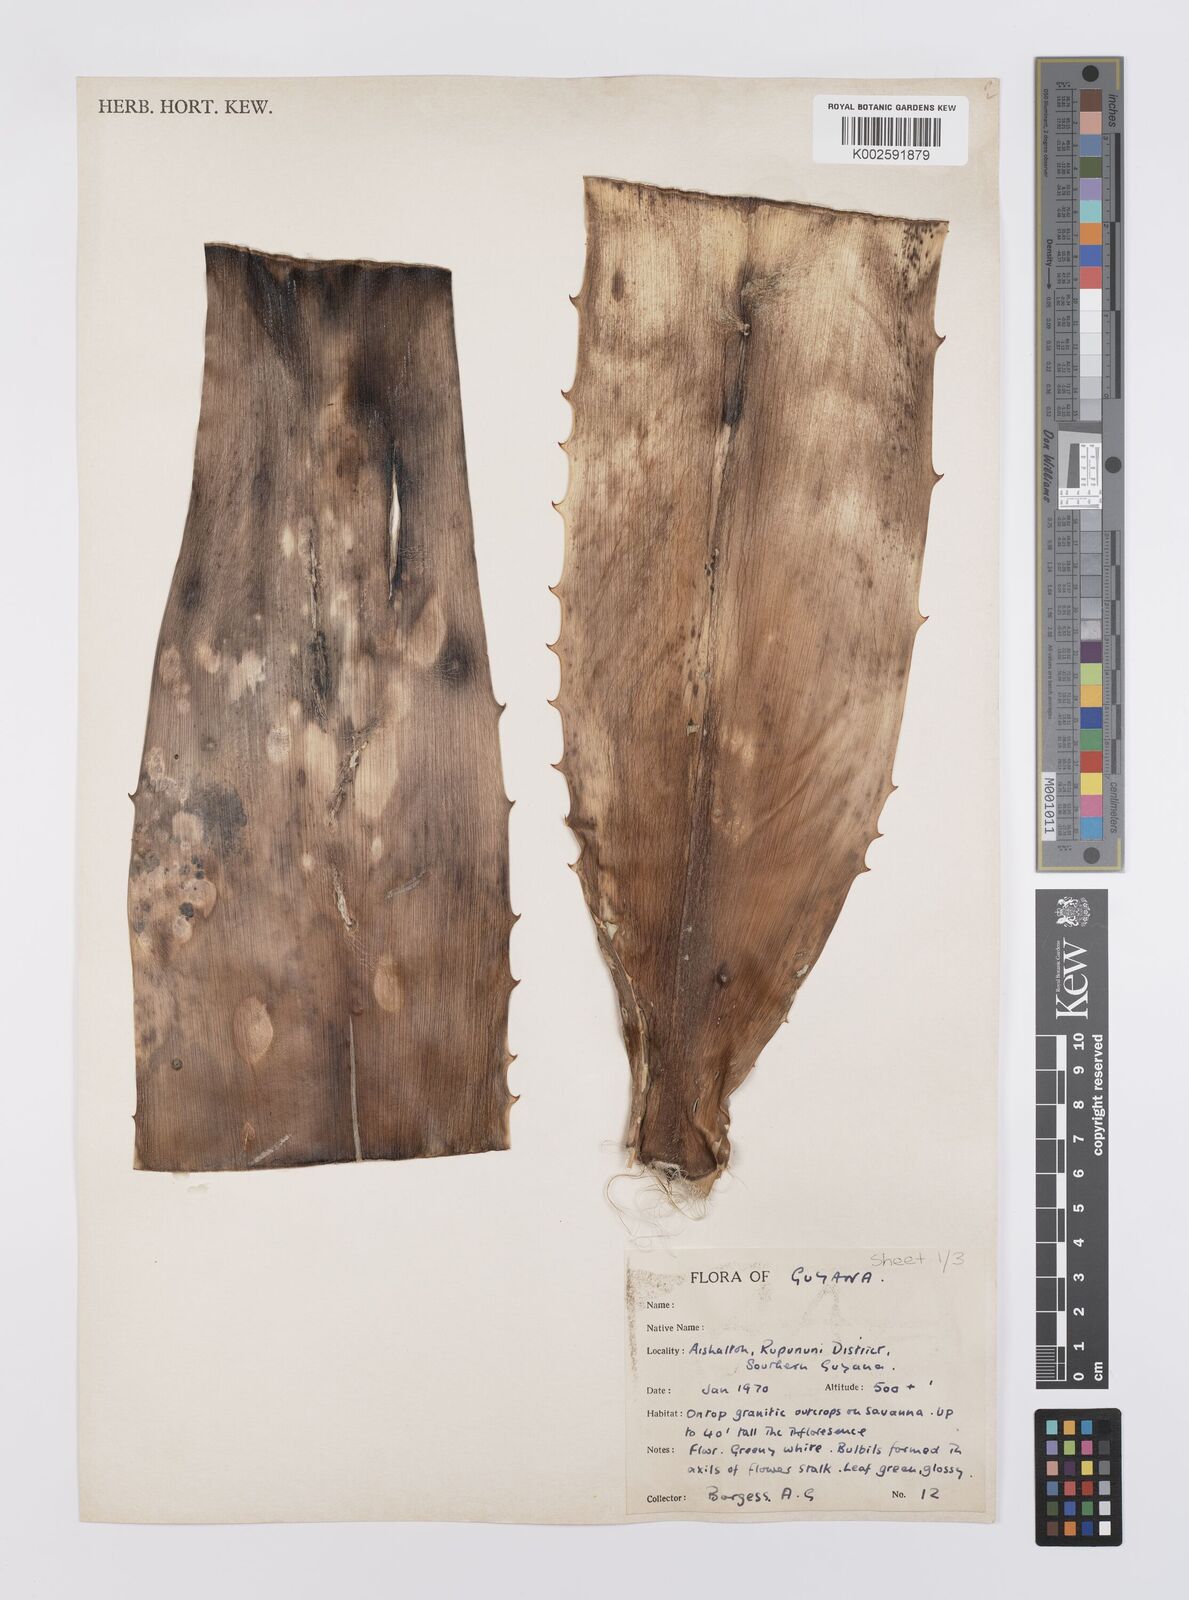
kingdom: Plantae
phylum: Tracheophyta
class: Liliopsida
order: Poales
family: Bromeliaceae
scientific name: Bromeliaceae
